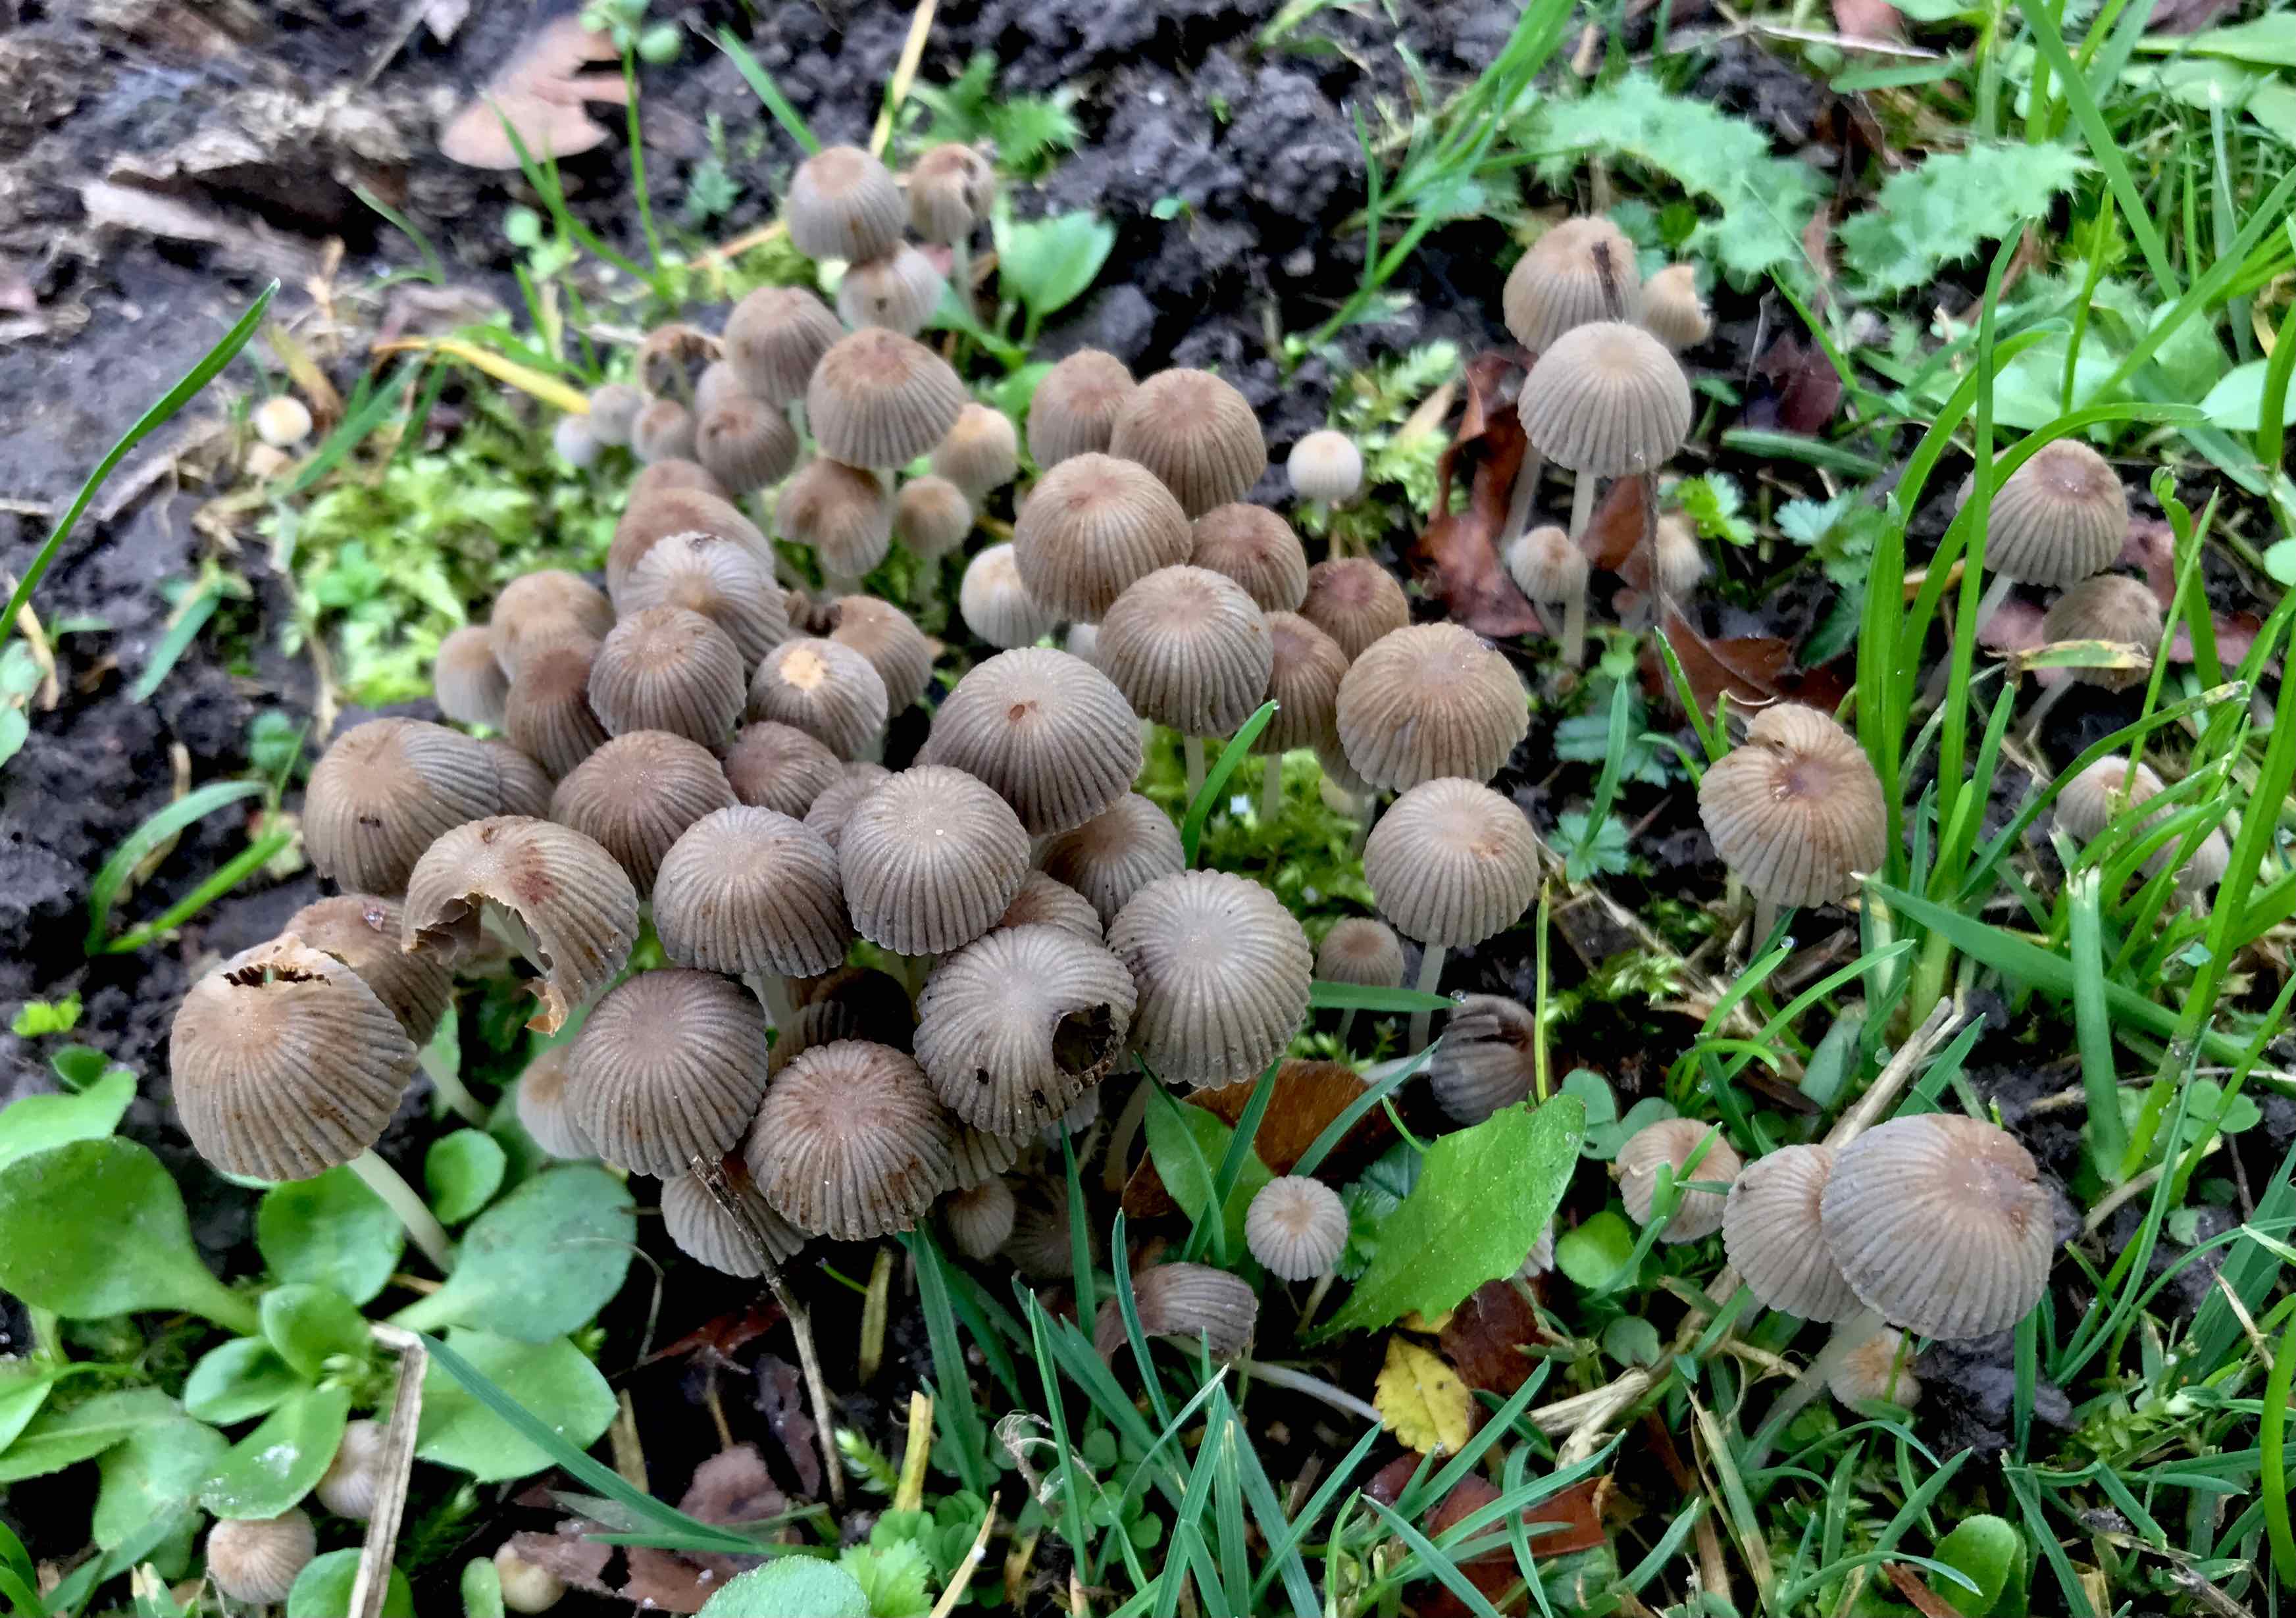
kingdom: Fungi
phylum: Basidiomycota
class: Agaricomycetes
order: Agaricales
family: Psathyrellaceae
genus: Coprinellus
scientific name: Coprinellus disseminatus
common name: bredsået blækhat
